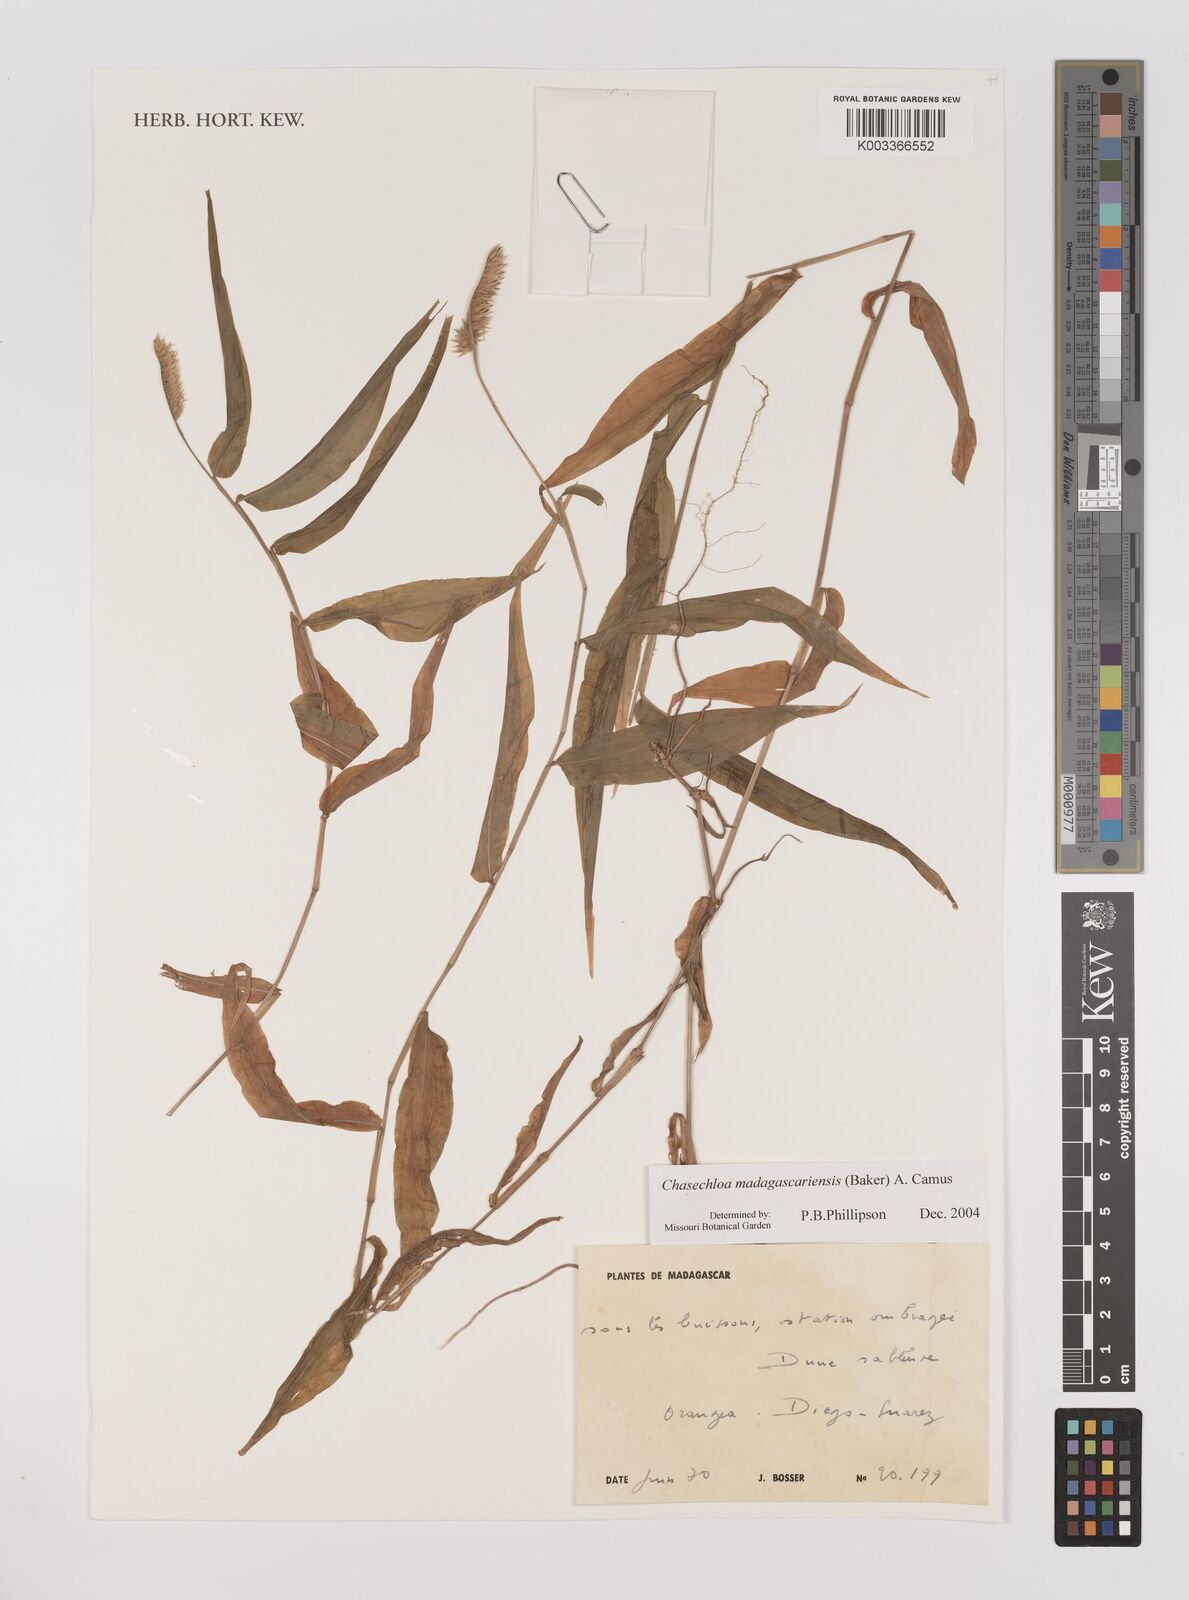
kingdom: Plantae
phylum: Tracheophyta
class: Liliopsida
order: Poales
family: Poaceae
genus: Chasechloa
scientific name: Chasechloa madagascariensis
